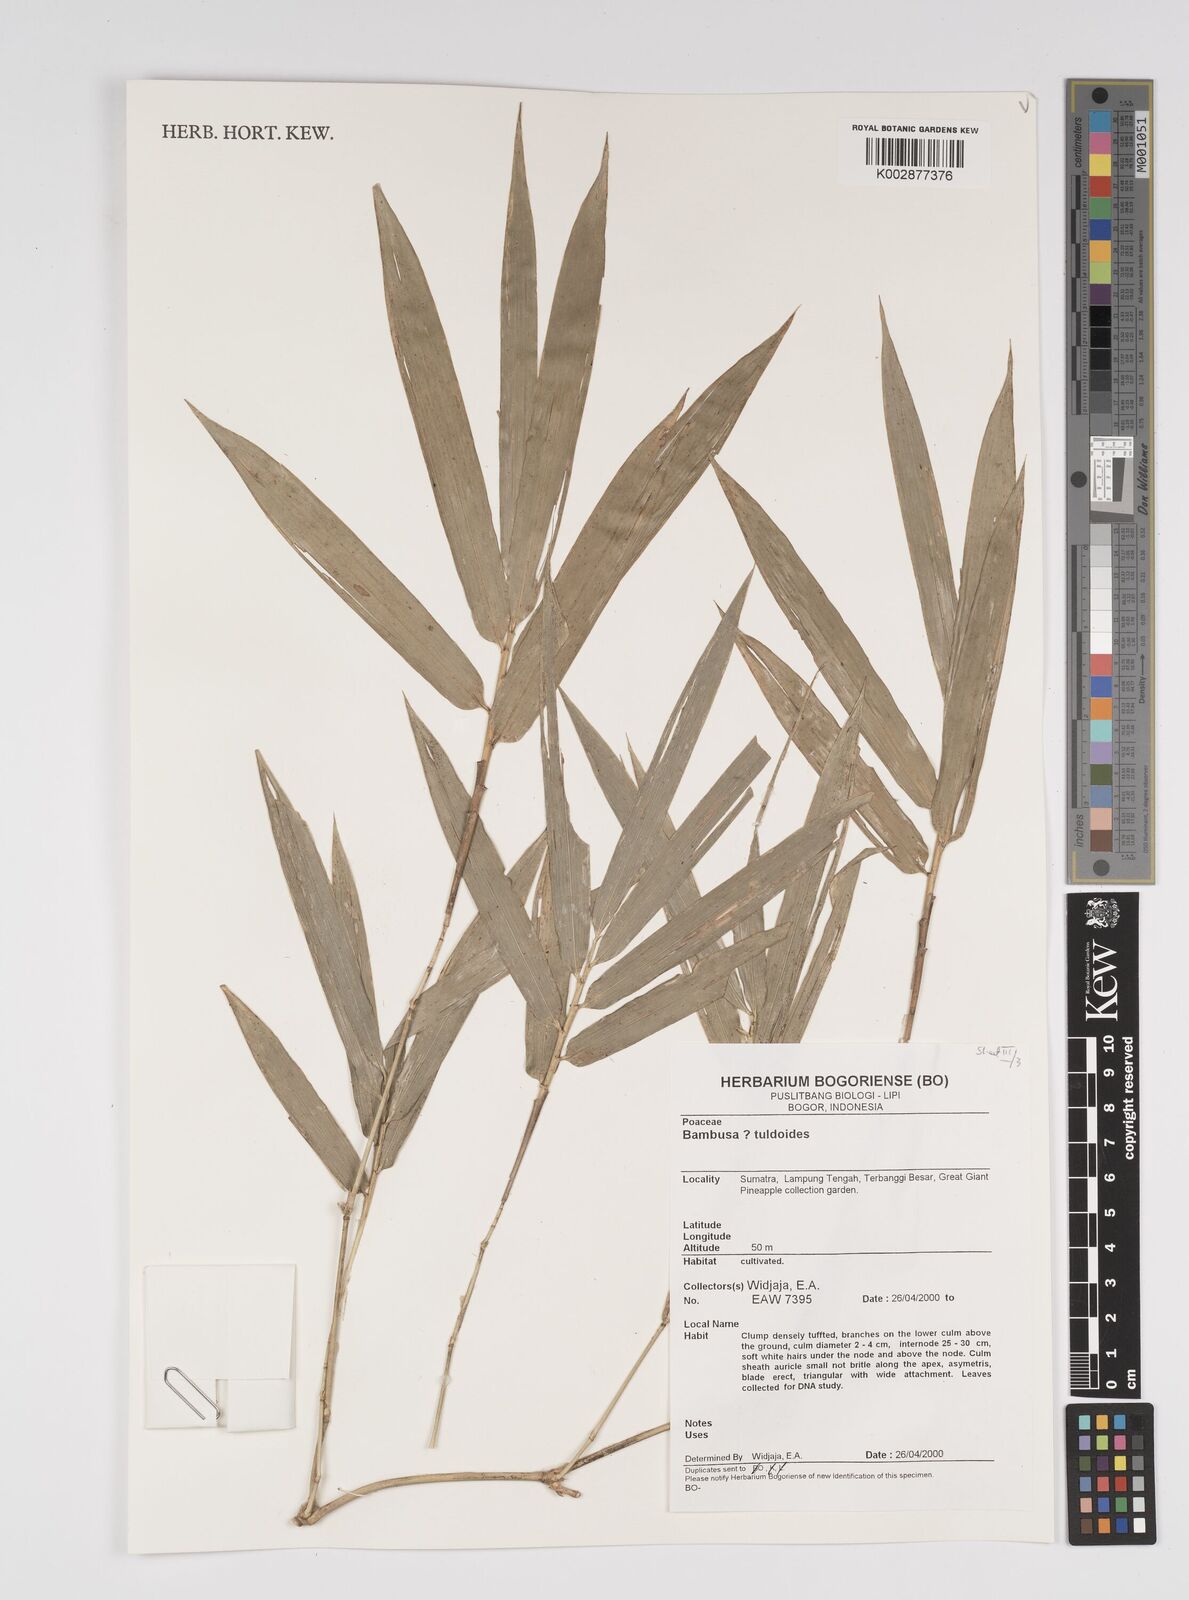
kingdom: Plantae
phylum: Tracheophyta
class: Liliopsida
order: Poales
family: Poaceae
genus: Bambusa
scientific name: Bambusa tuldoides
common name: Verdant bamboo
